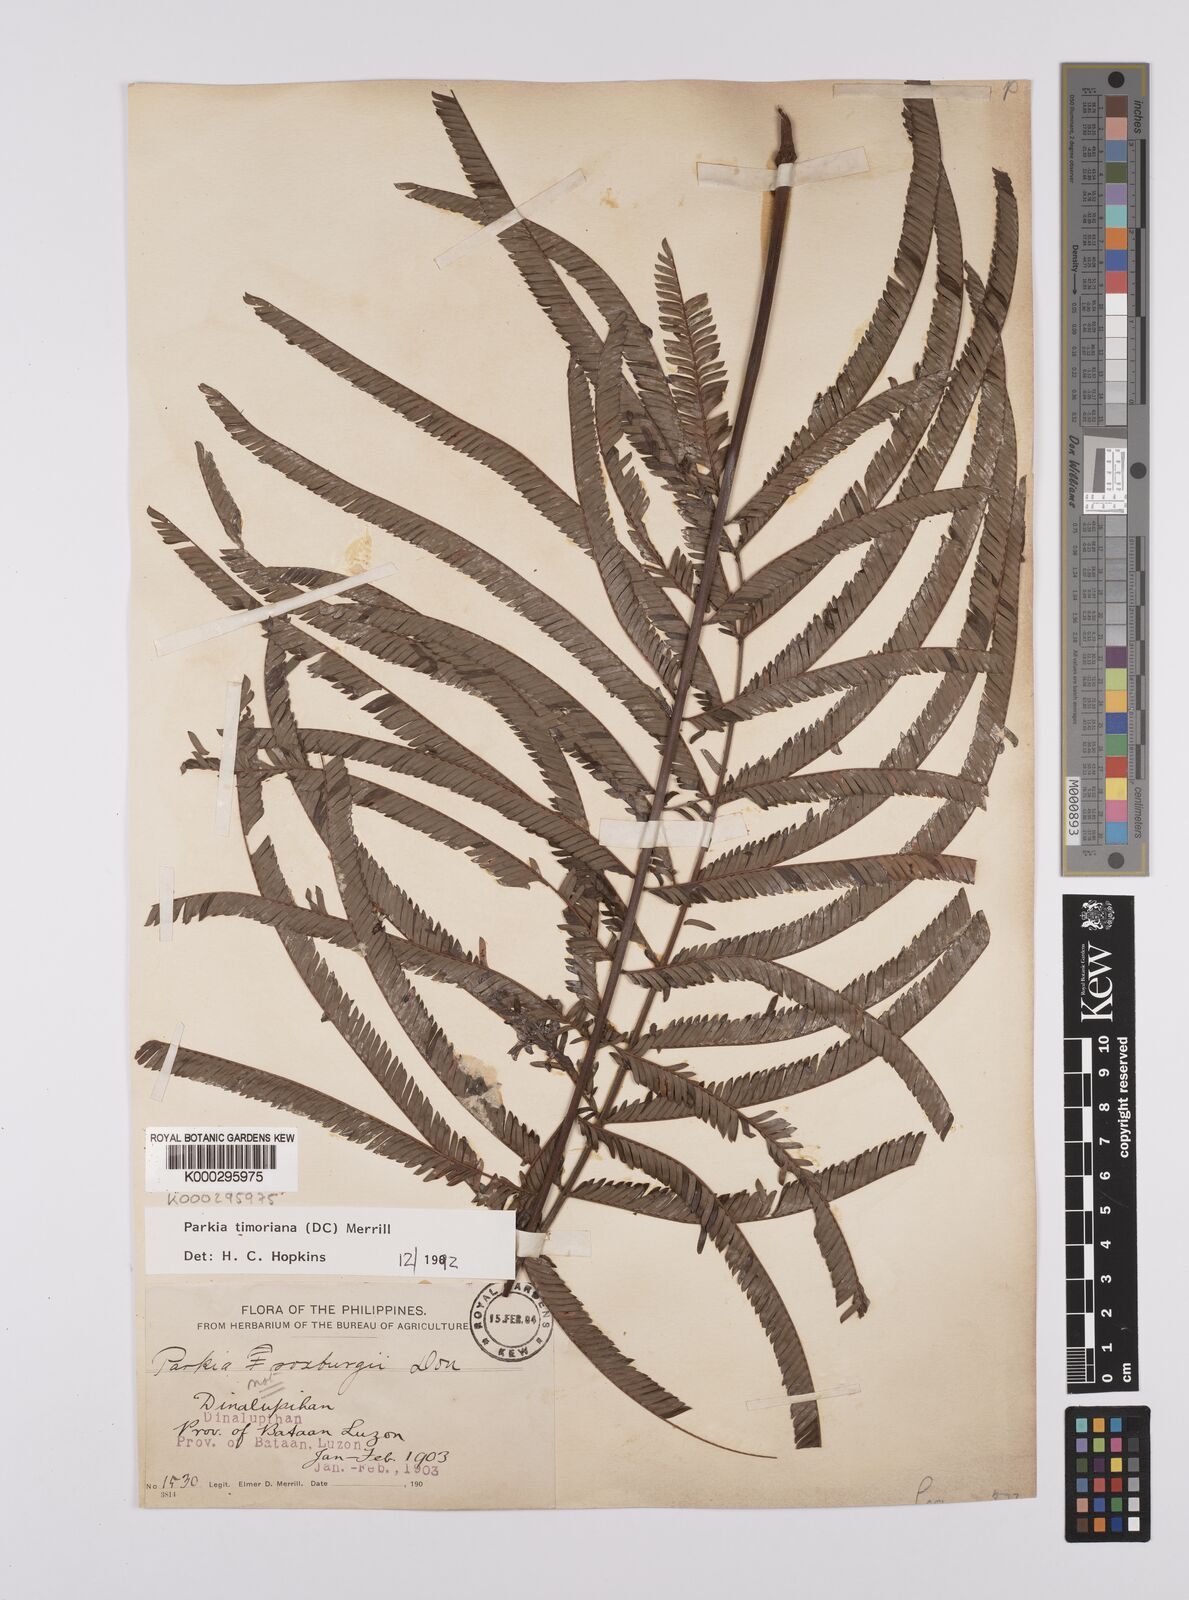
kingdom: Plantae
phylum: Tracheophyta
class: Magnoliopsida
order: Fabales
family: Fabaceae
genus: Parkia
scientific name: Parkia timoriana
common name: Legume
